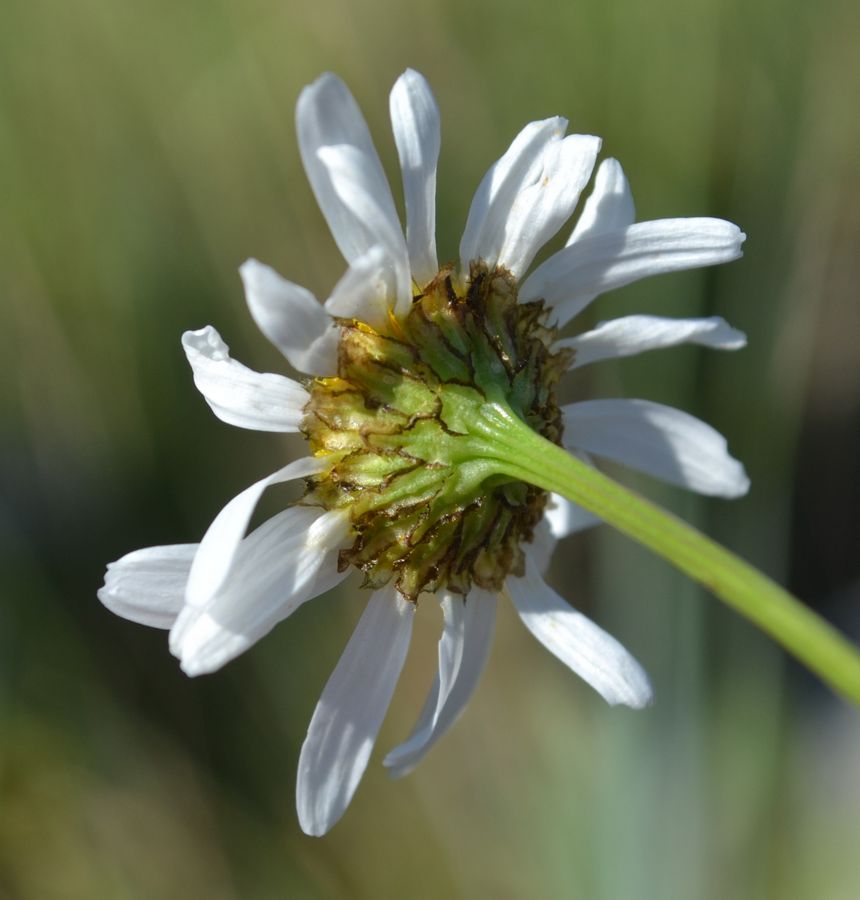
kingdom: Plantae
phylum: Tracheophyta
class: Magnoliopsida
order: Asterales
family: Asteraceae
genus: Tripleurospermum
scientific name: Tripleurospermum maritimum
